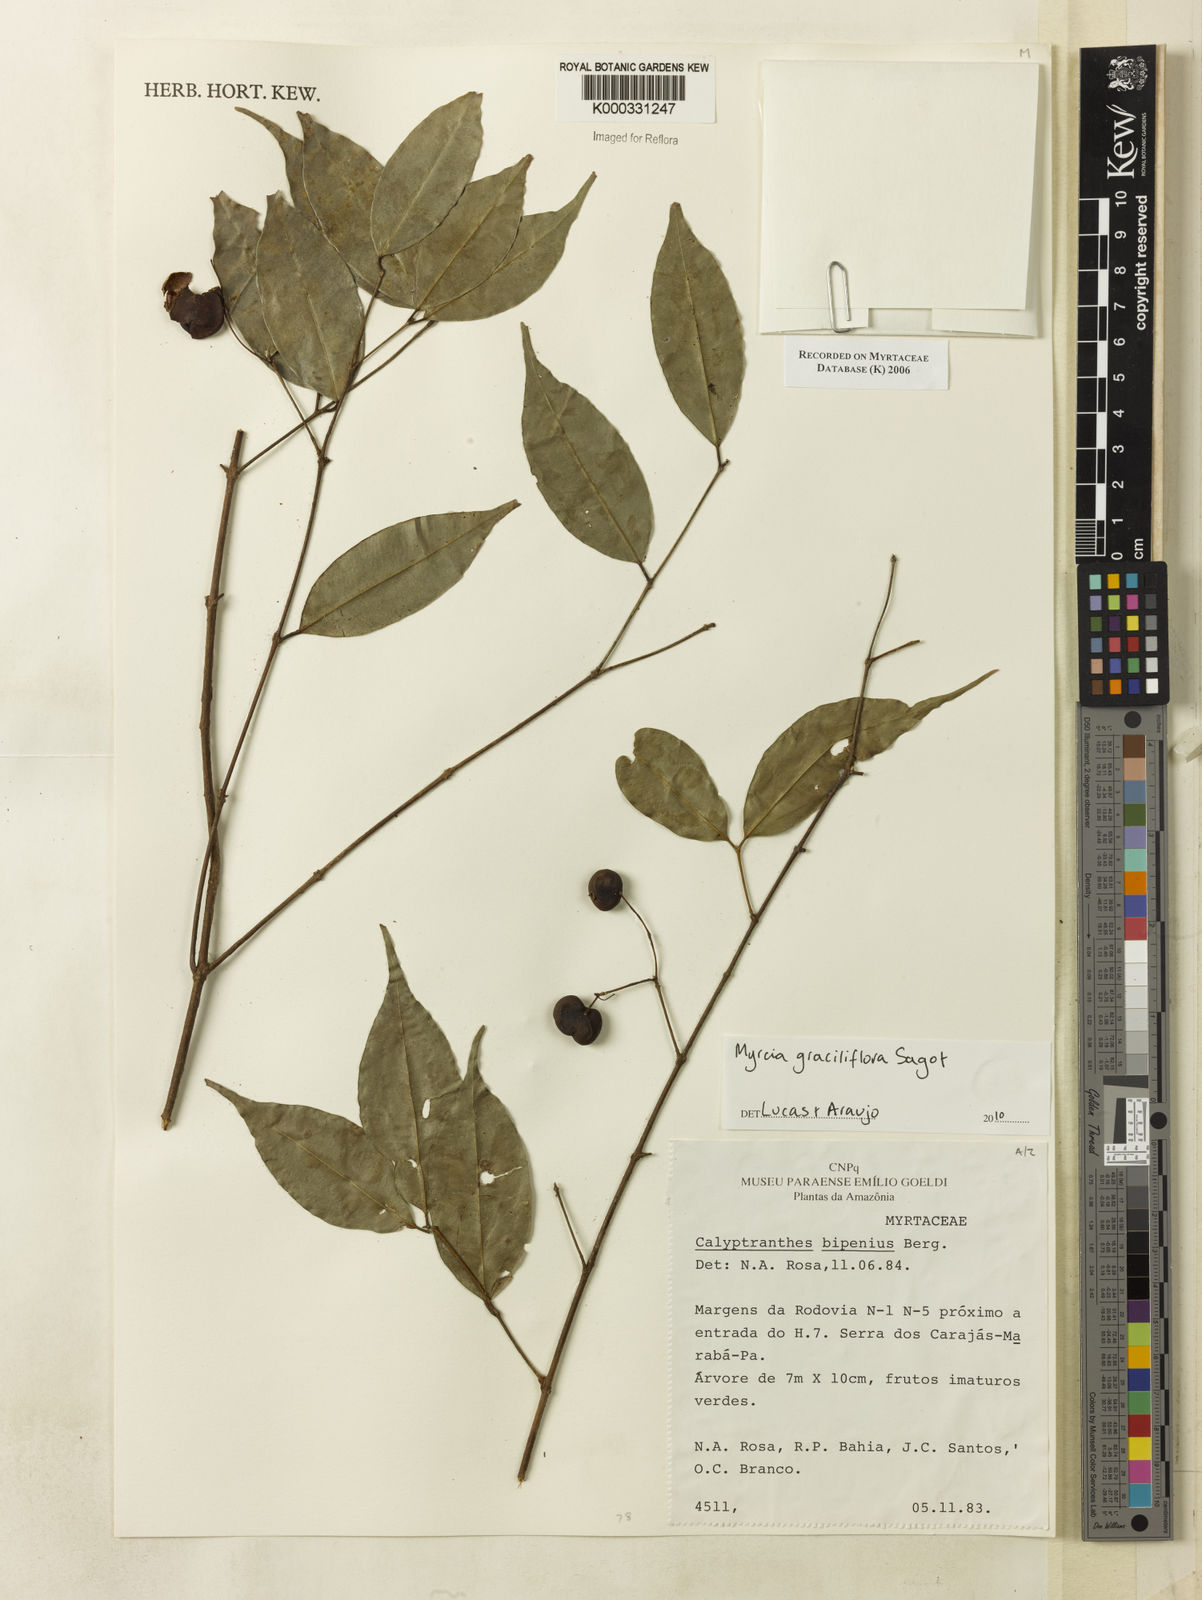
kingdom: Plantae
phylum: Tracheophyta
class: Magnoliopsida
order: Myrtales
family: Myrtaceae
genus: Myrcia
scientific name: Myrcia tenuiflora
